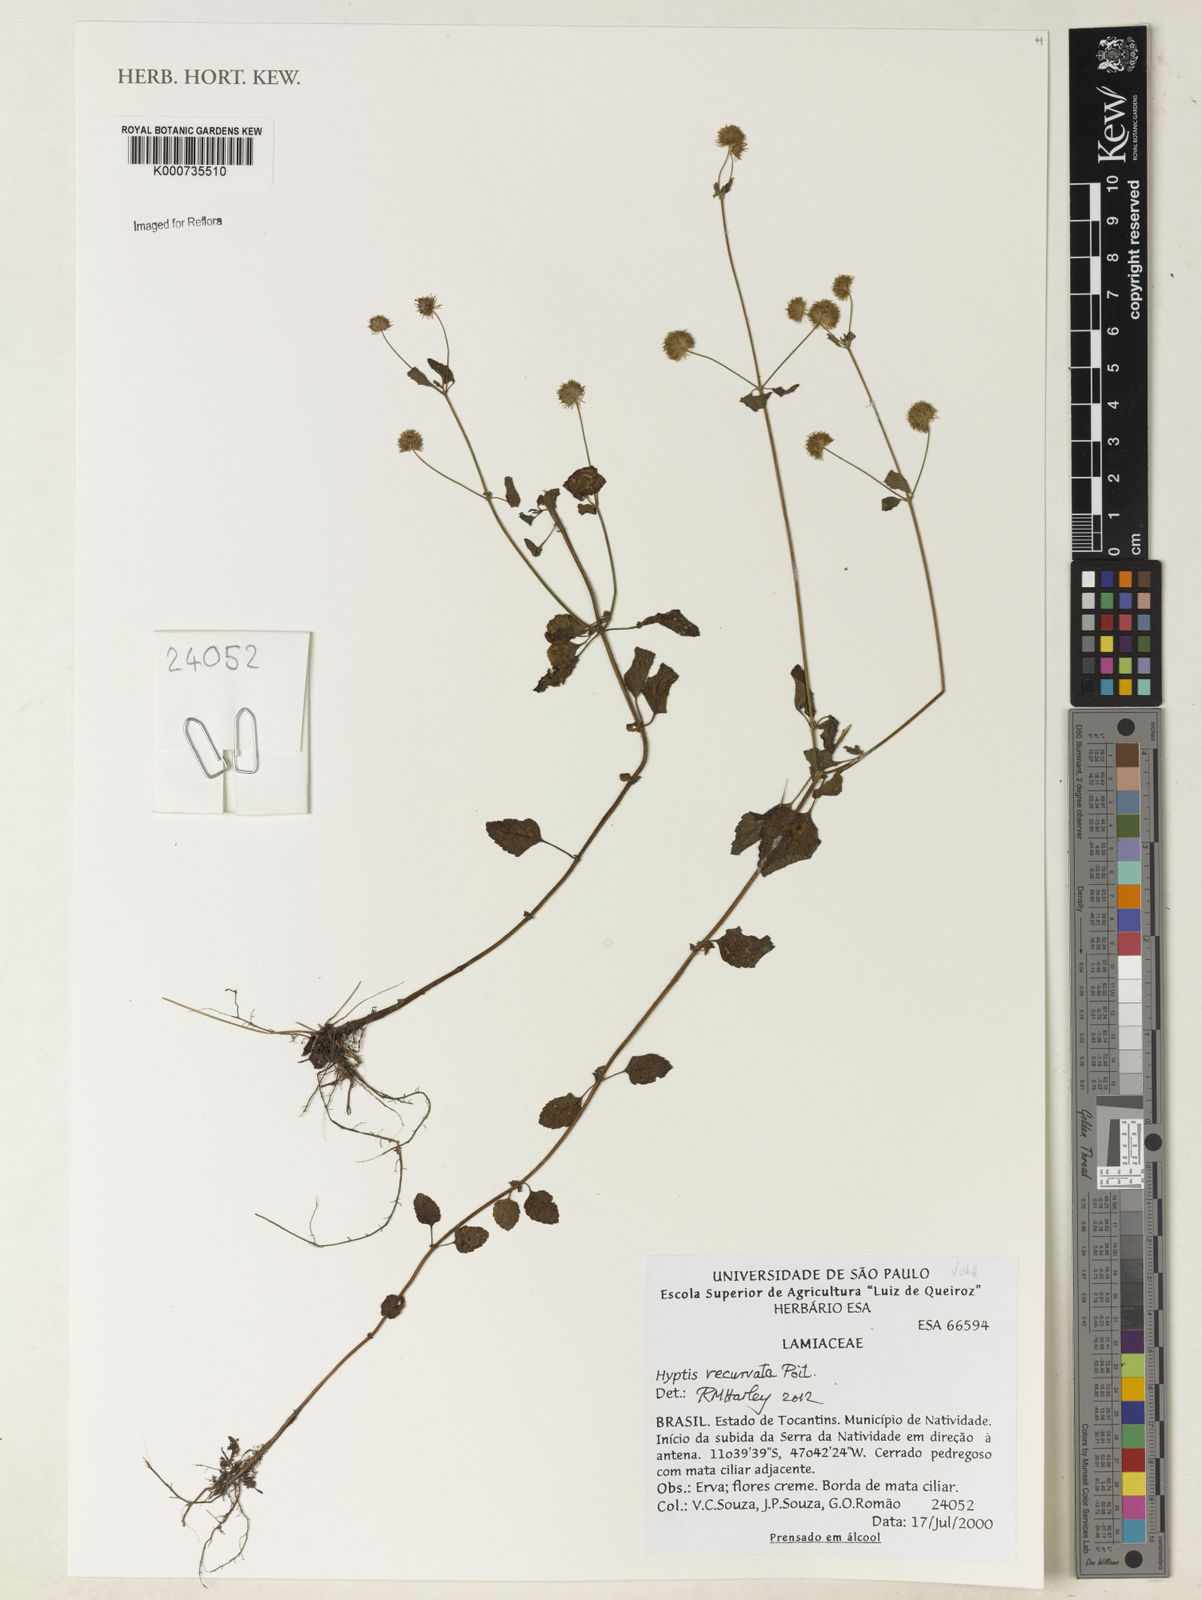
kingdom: Plantae
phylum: Tracheophyta
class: Magnoliopsida
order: Lamiales
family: Lamiaceae
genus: Hyptis
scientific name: Hyptis
